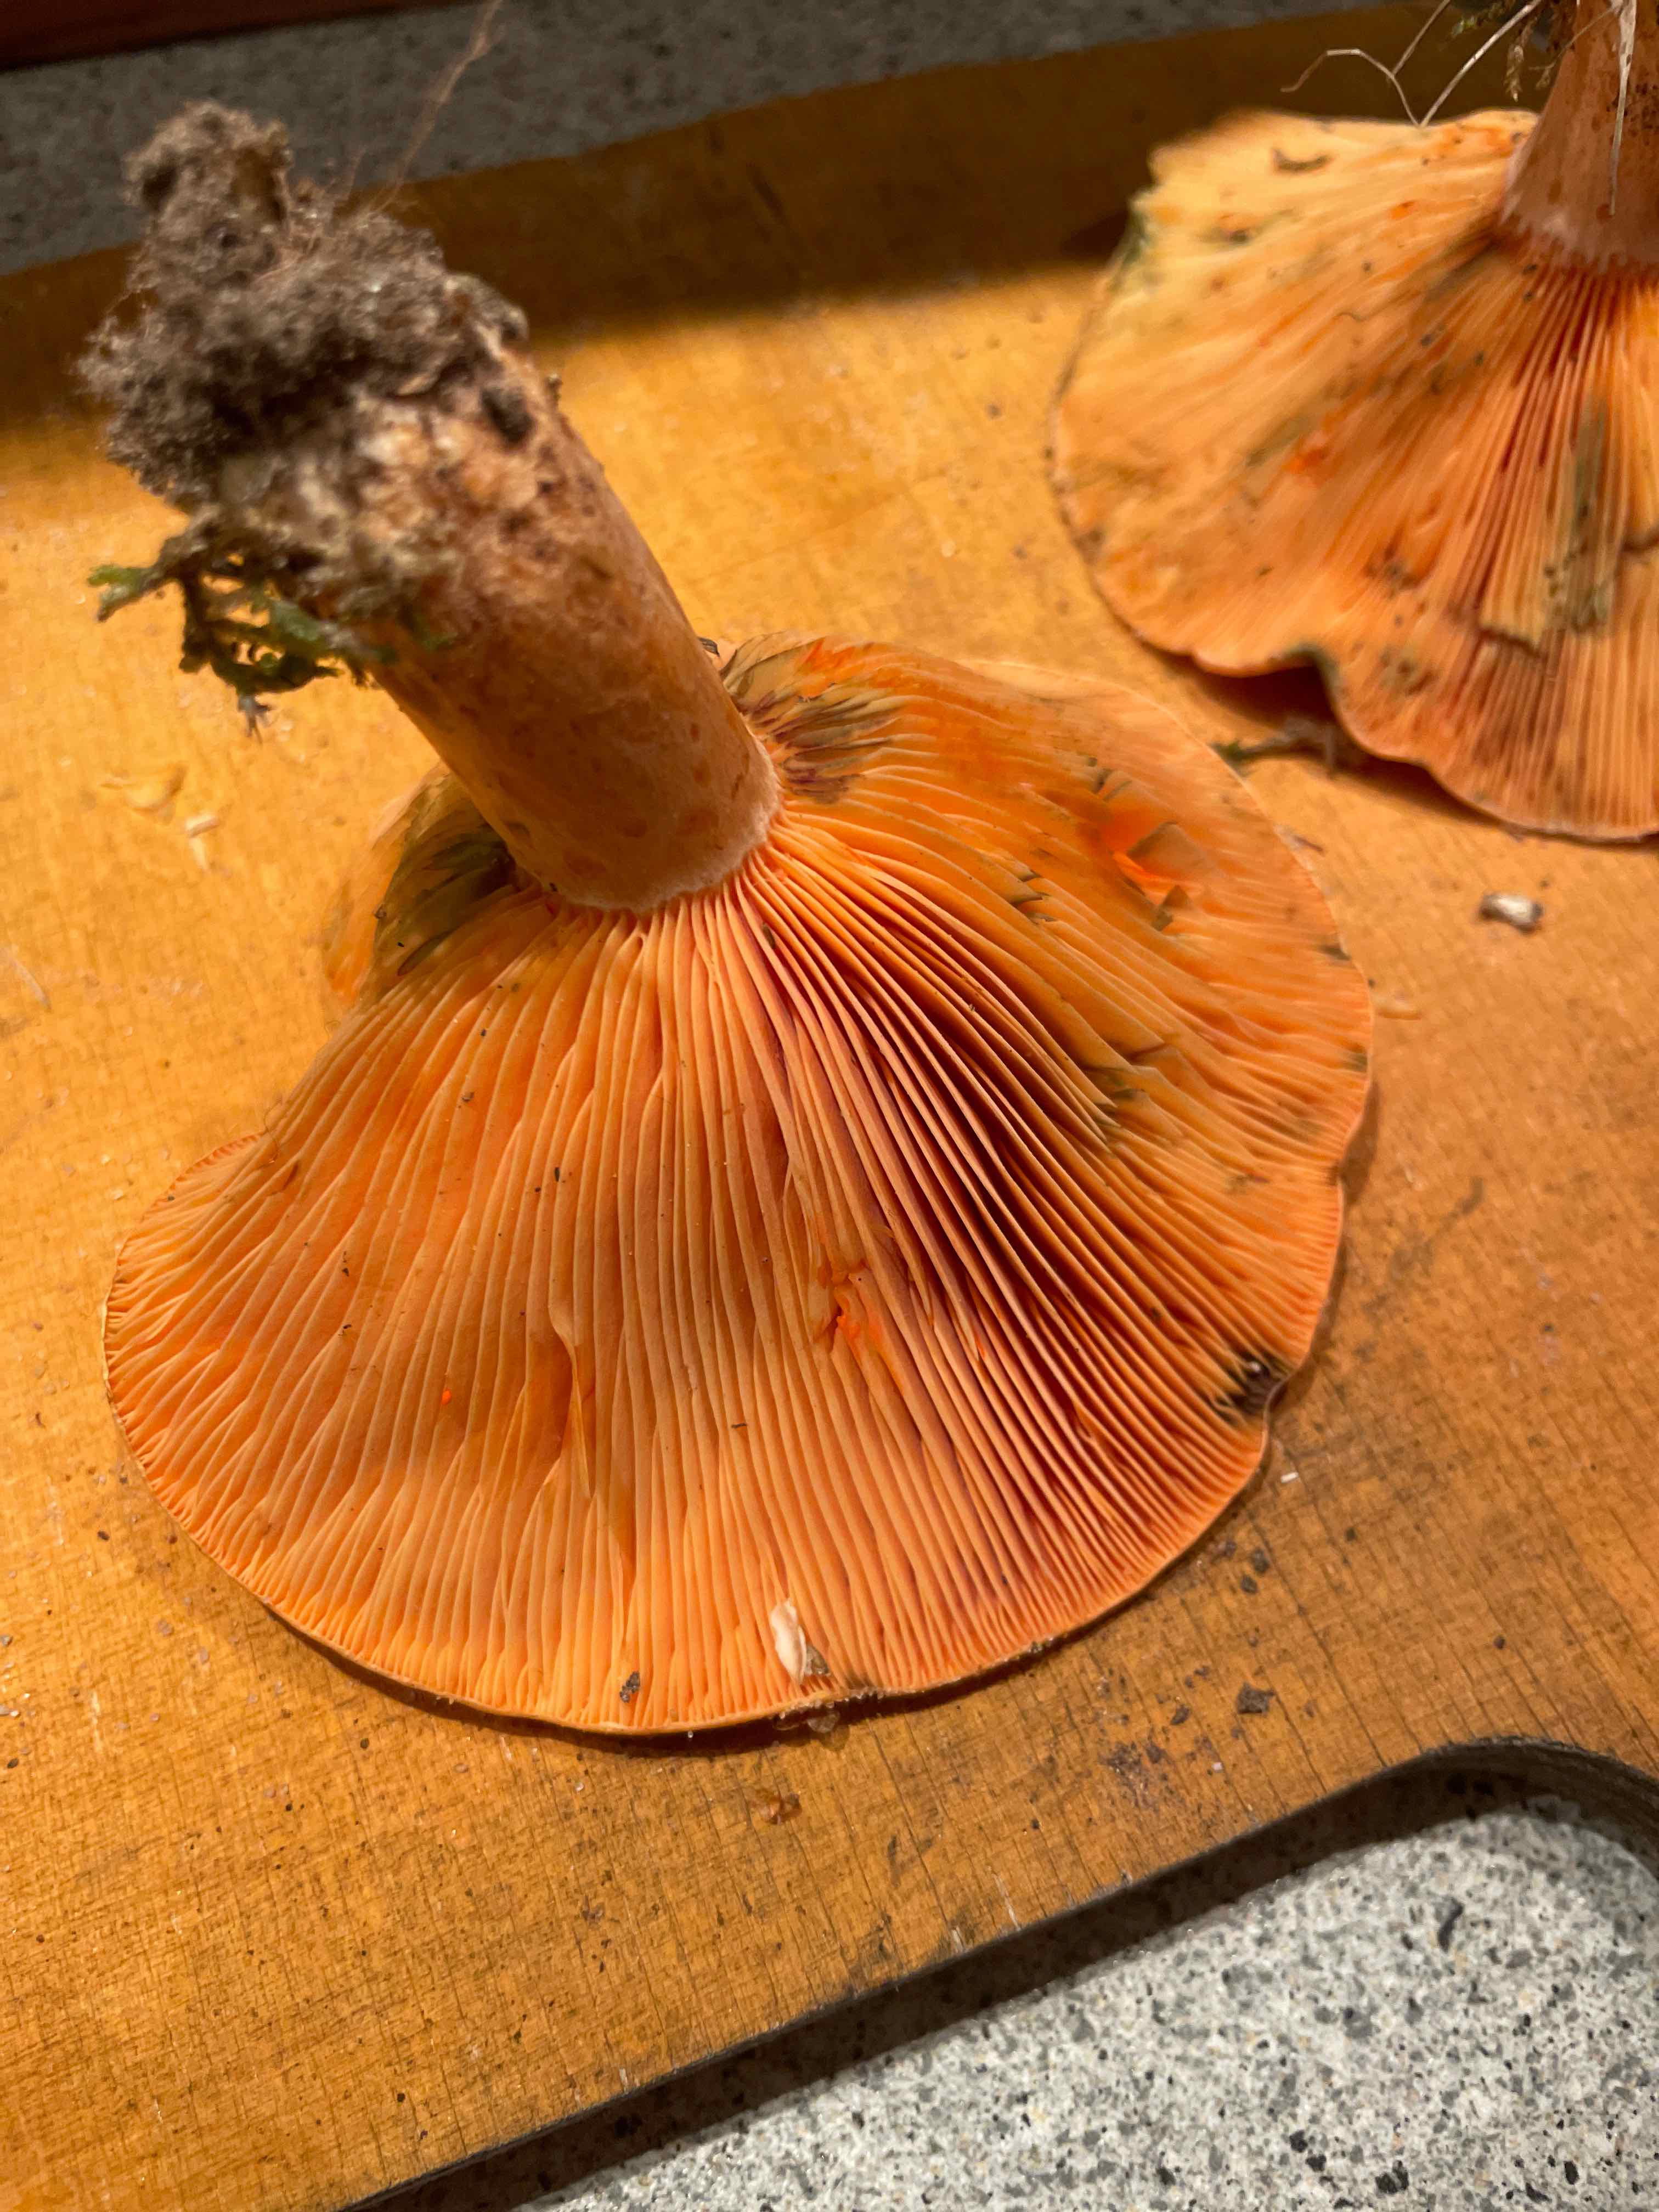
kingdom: Fungi
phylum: Basidiomycota
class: Agaricomycetes
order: Russulales
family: Russulaceae
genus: Lactarius
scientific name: Lactarius deterrimus
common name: gran-mælkehat
